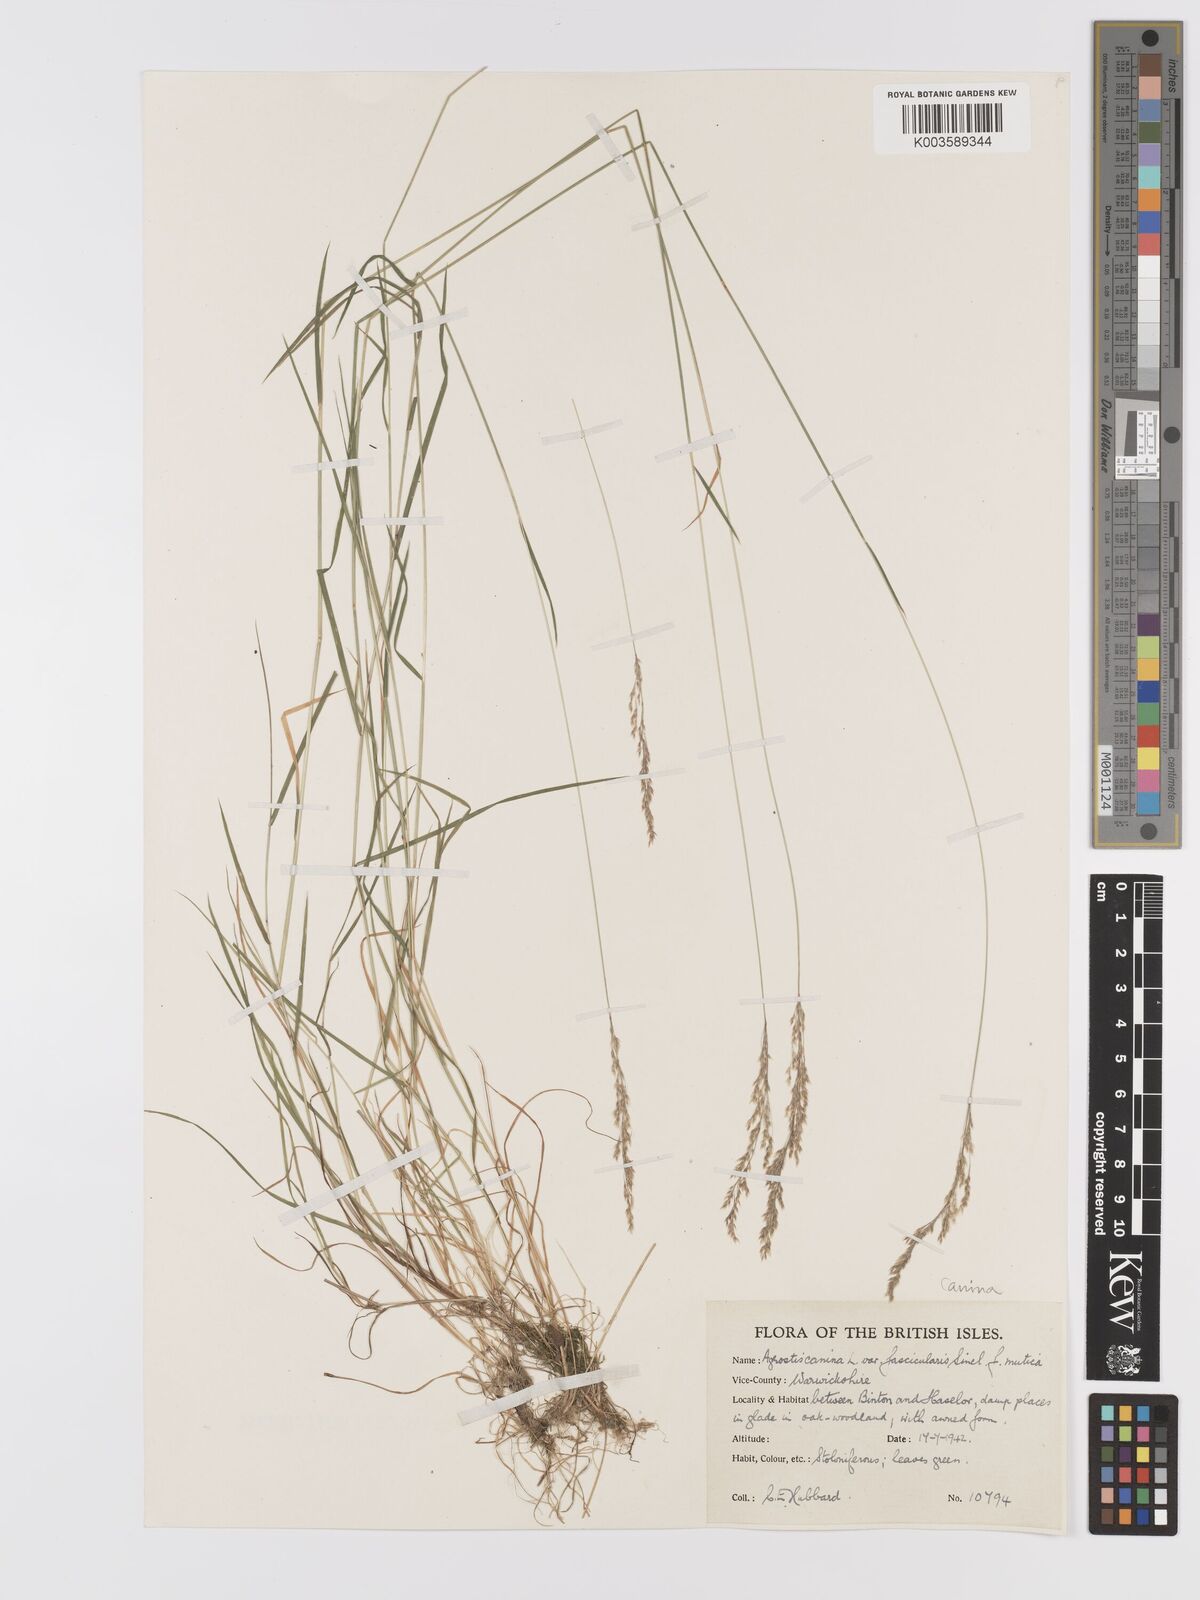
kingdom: Plantae
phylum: Tracheophyta
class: Liliopsida
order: Poales
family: Poaceae
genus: Agrostis
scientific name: Agrostis canina
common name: Velvet bent
